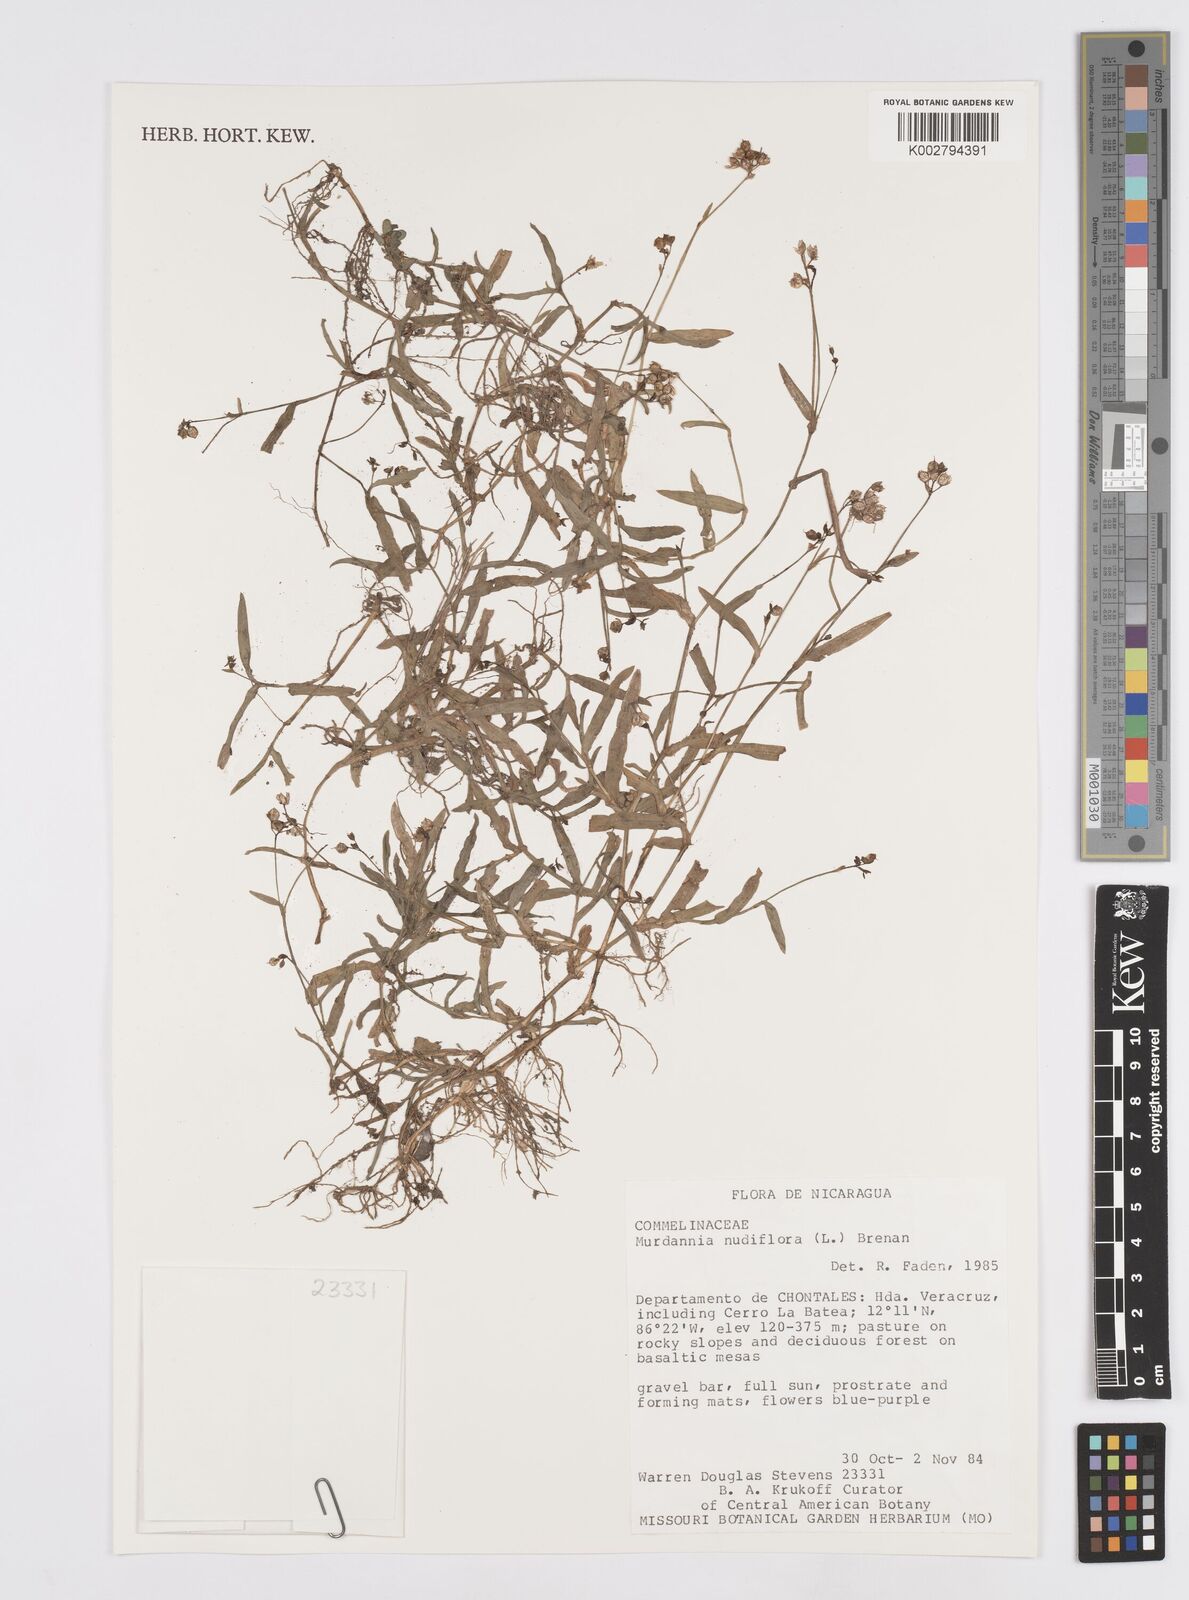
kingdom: Plantae
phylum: Tracheophyta
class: Liliopsida
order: Commelinales
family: Commelinaceae
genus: Murdannia
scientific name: Murdannia nudiflora
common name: Nakedstem dewflower
